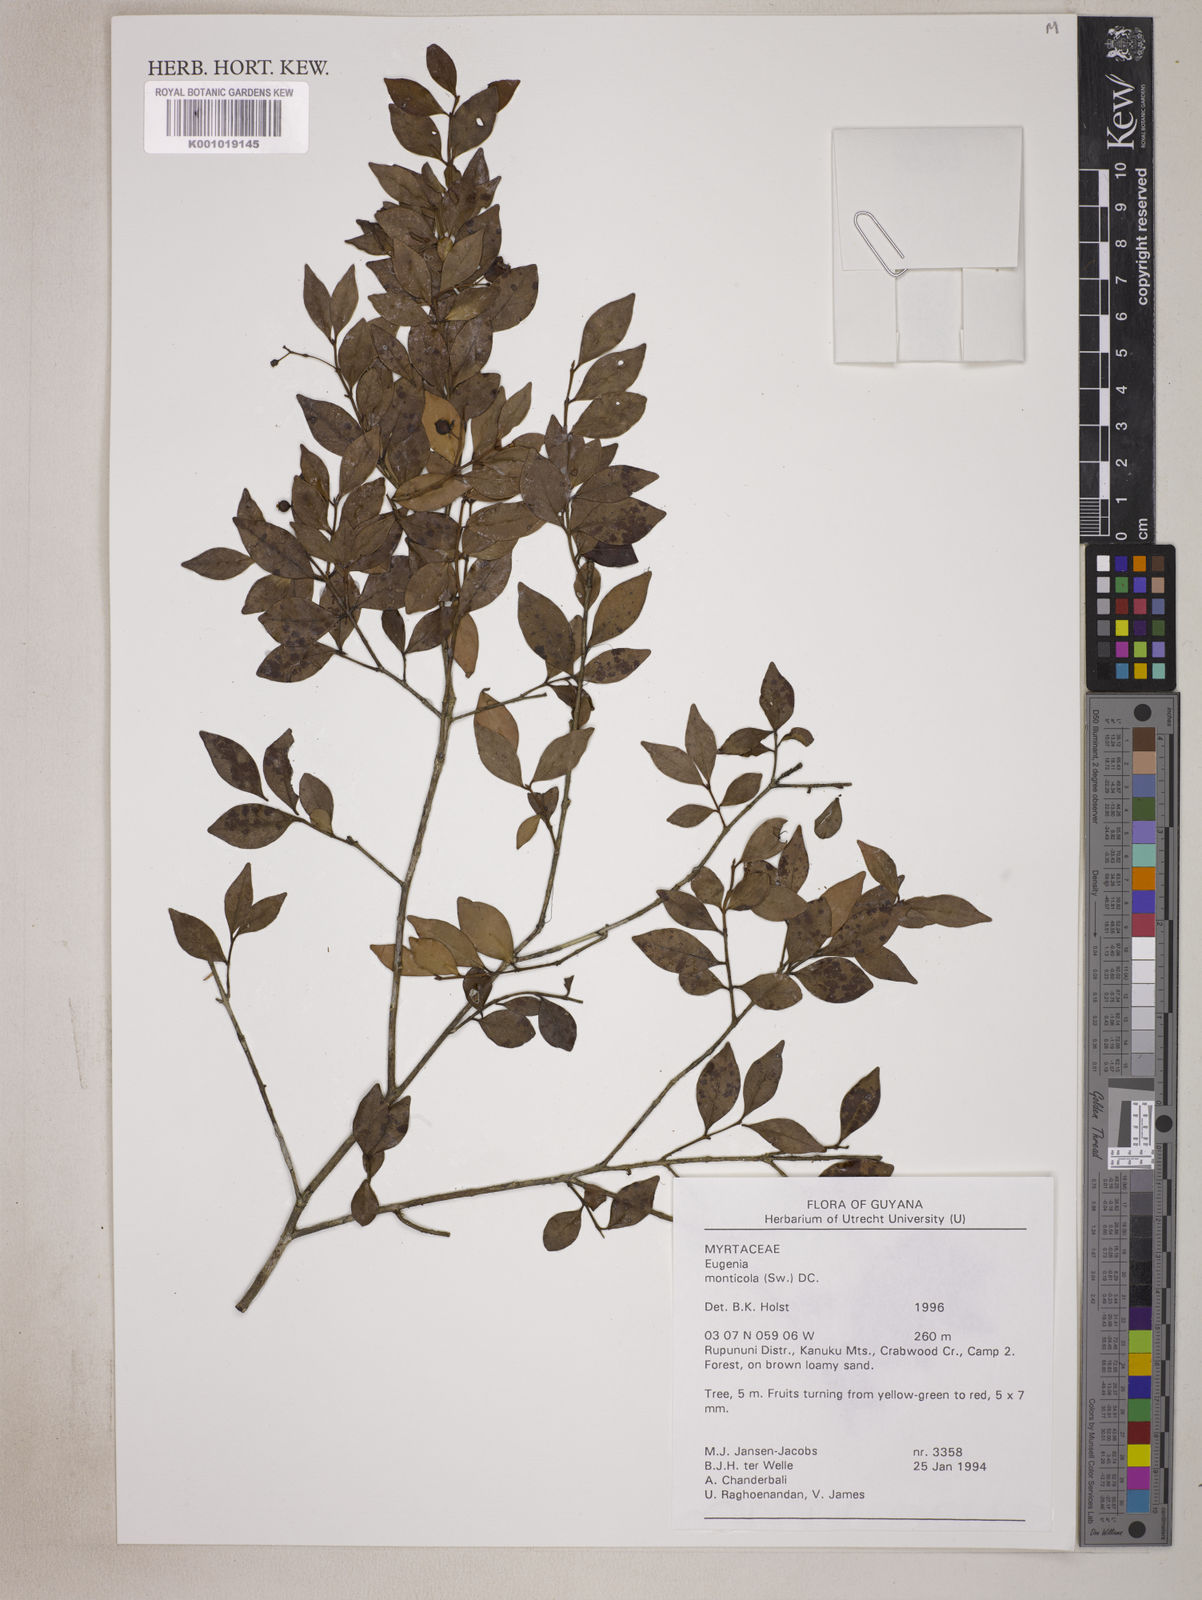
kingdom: Plantae
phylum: Tracheophyta
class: Magnoliopsida
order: Myrtales
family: Myrtaceae
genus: Eugenia
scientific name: Eugenia monticola
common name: Birds berry
